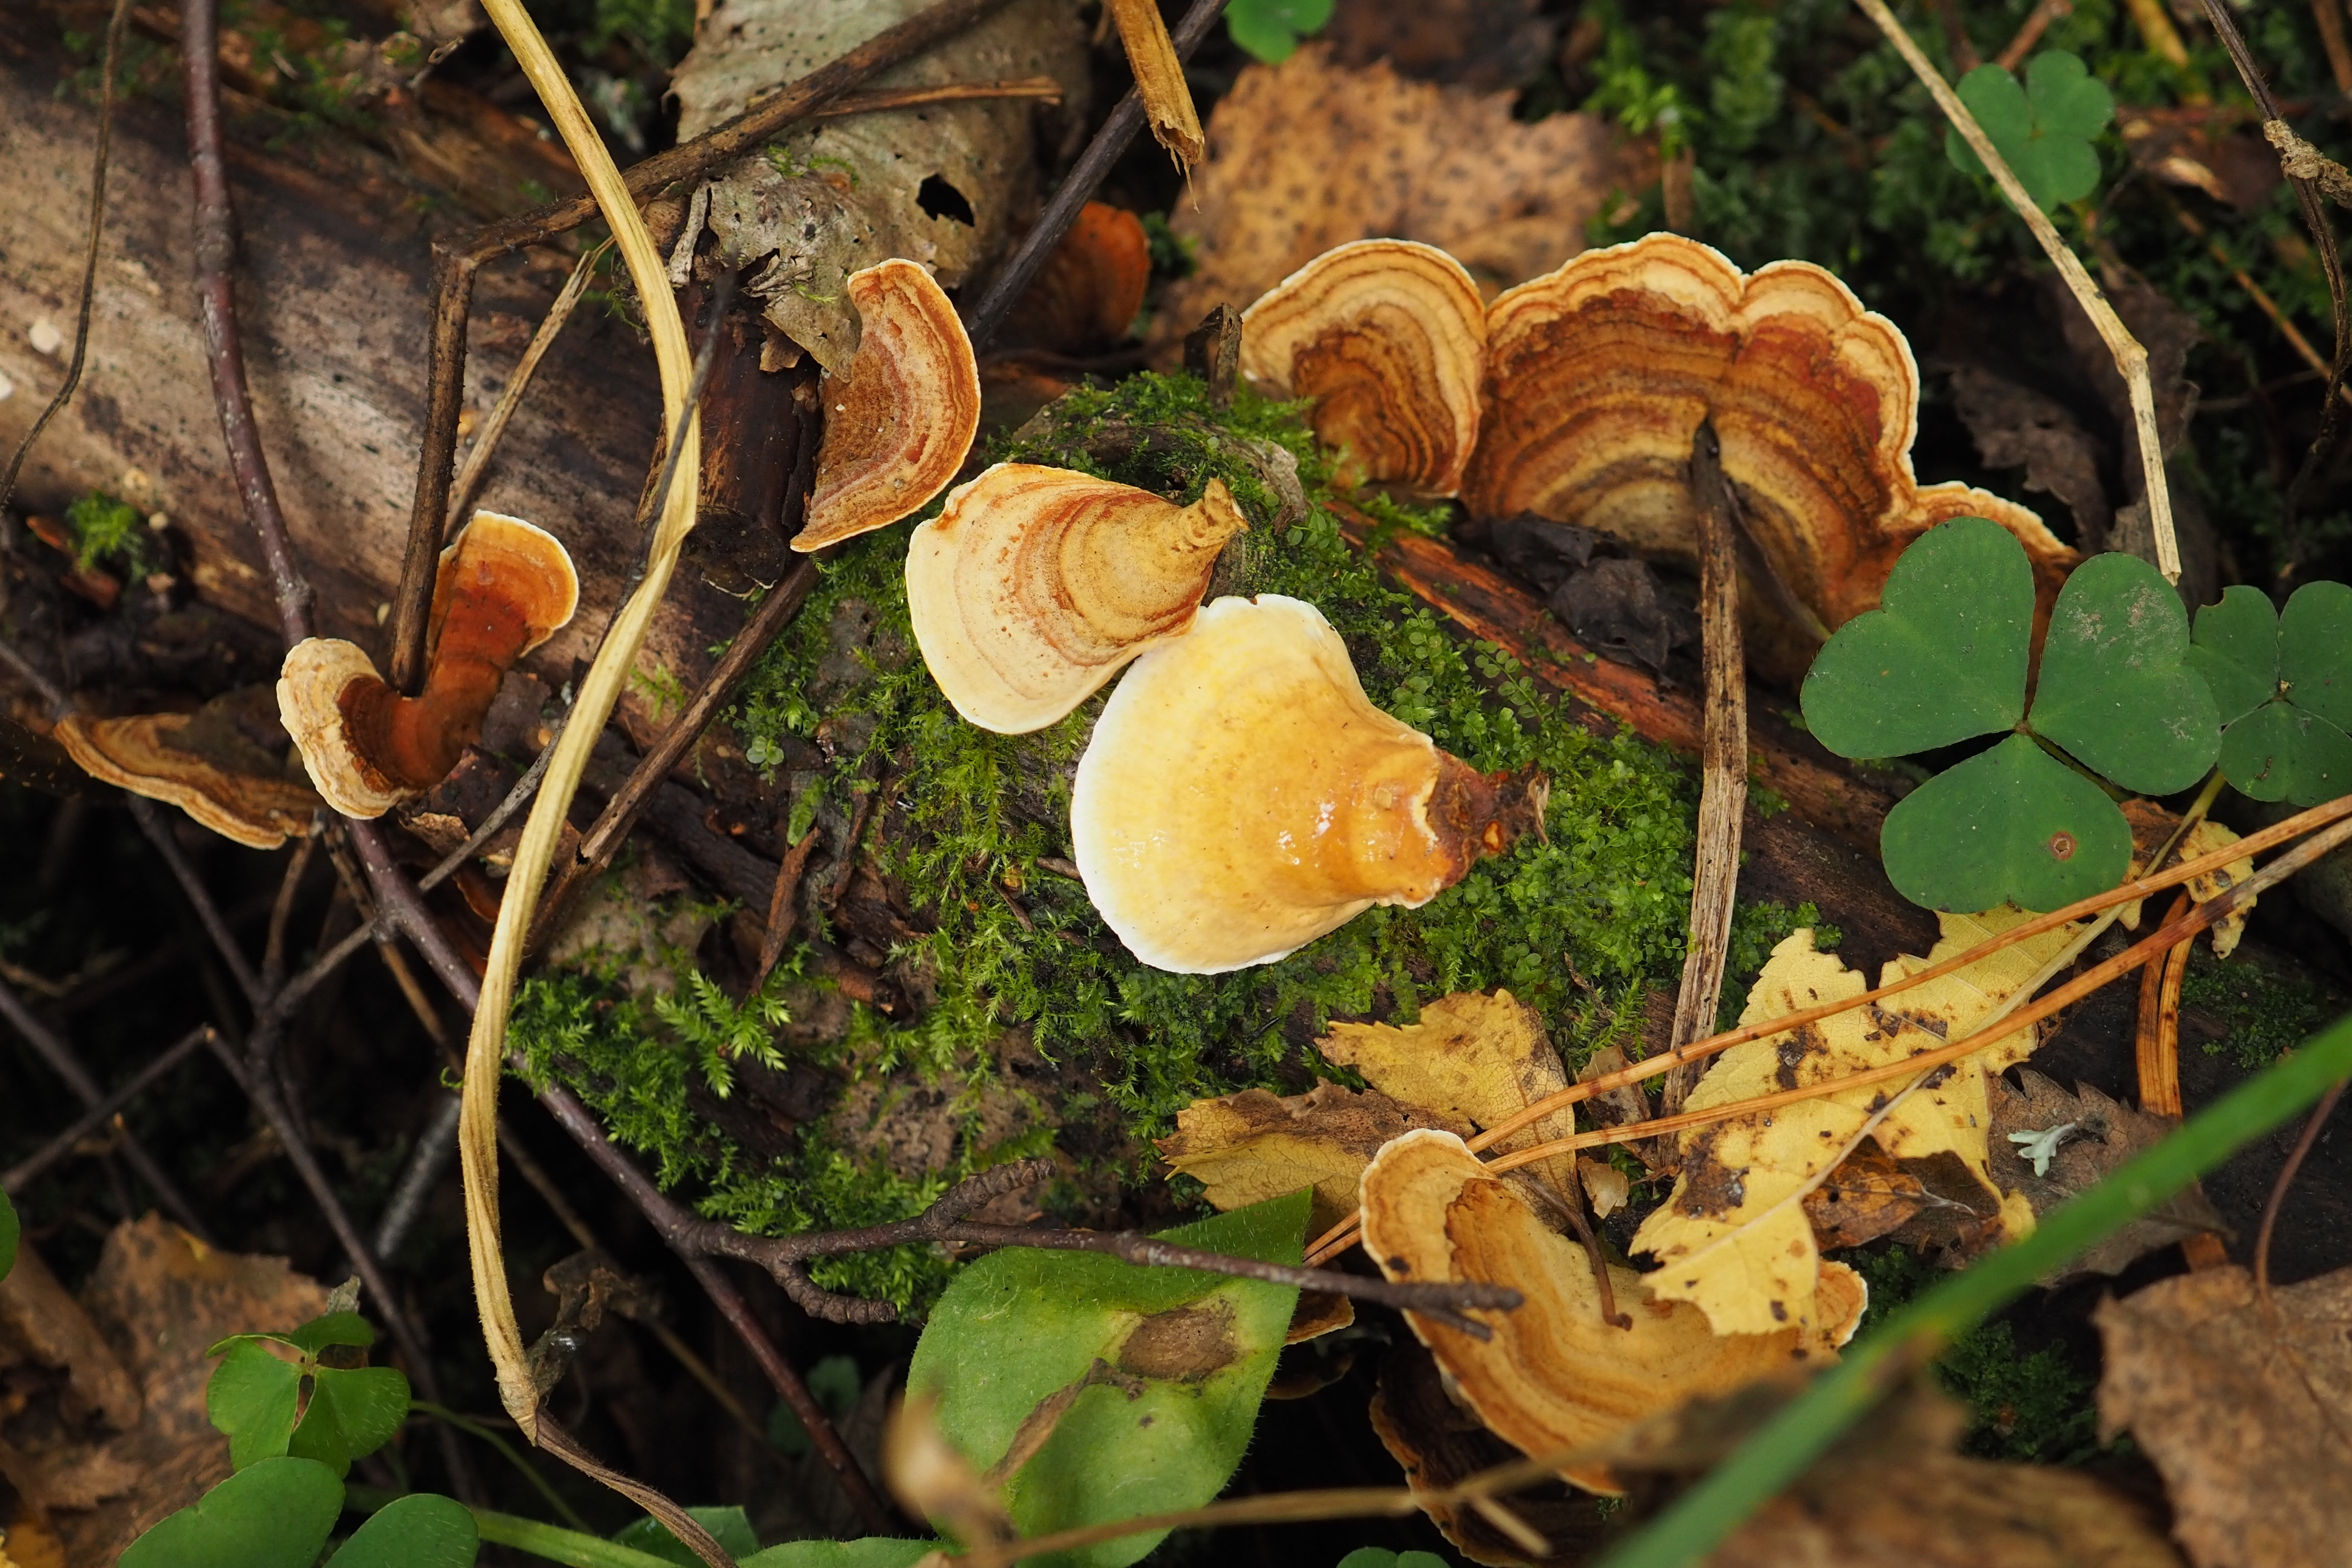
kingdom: Fungi
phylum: Basidiomycota
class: Agaricomycetes
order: Russulales
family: Stereaceae
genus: Stereum
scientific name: Stereum subtomentosum
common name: Yellowing curtain crust
